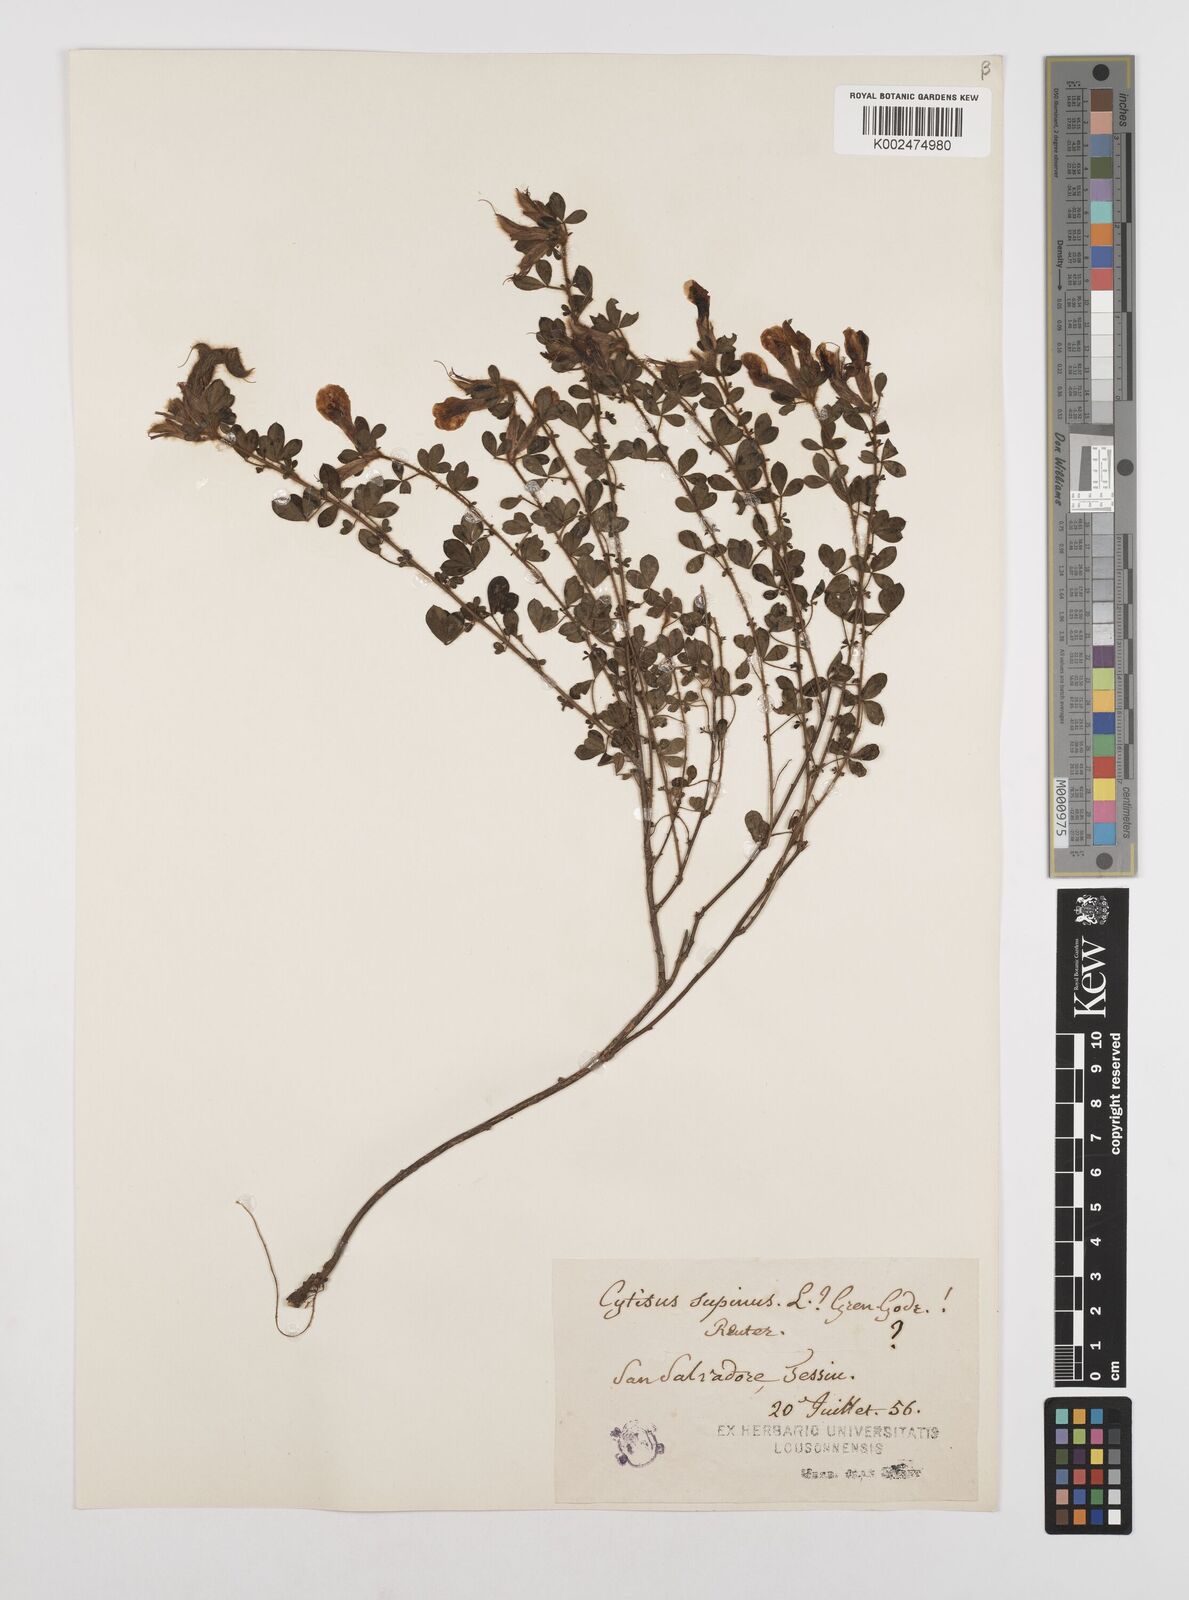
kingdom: Plantae
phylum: Tracheophyta
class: Magnoliopsida
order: Fabales
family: Fabaceae
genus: Chamaecytisus
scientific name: Chamaecytisus hirsutus
